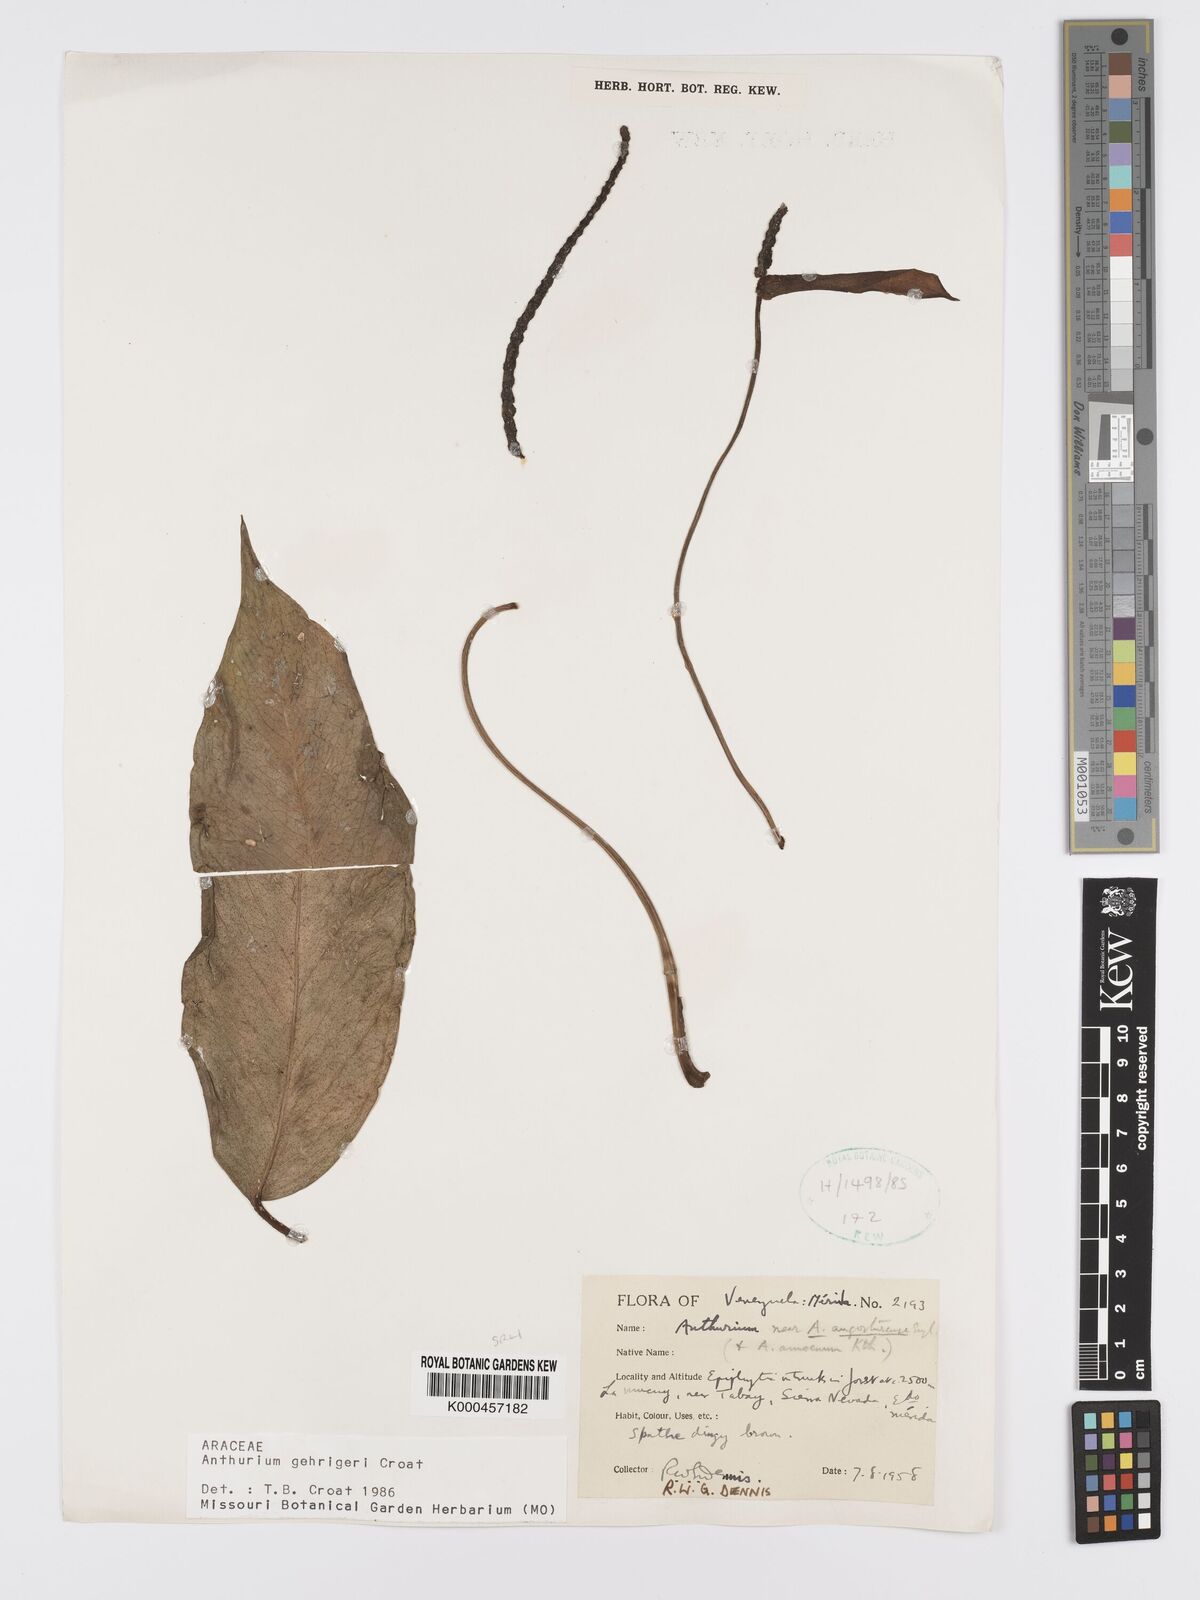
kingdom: Plantae
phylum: Tracheophyta
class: Liliopsida
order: Alismatales
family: Araceae
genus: Anthurium
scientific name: Anthurium gehrigeri
